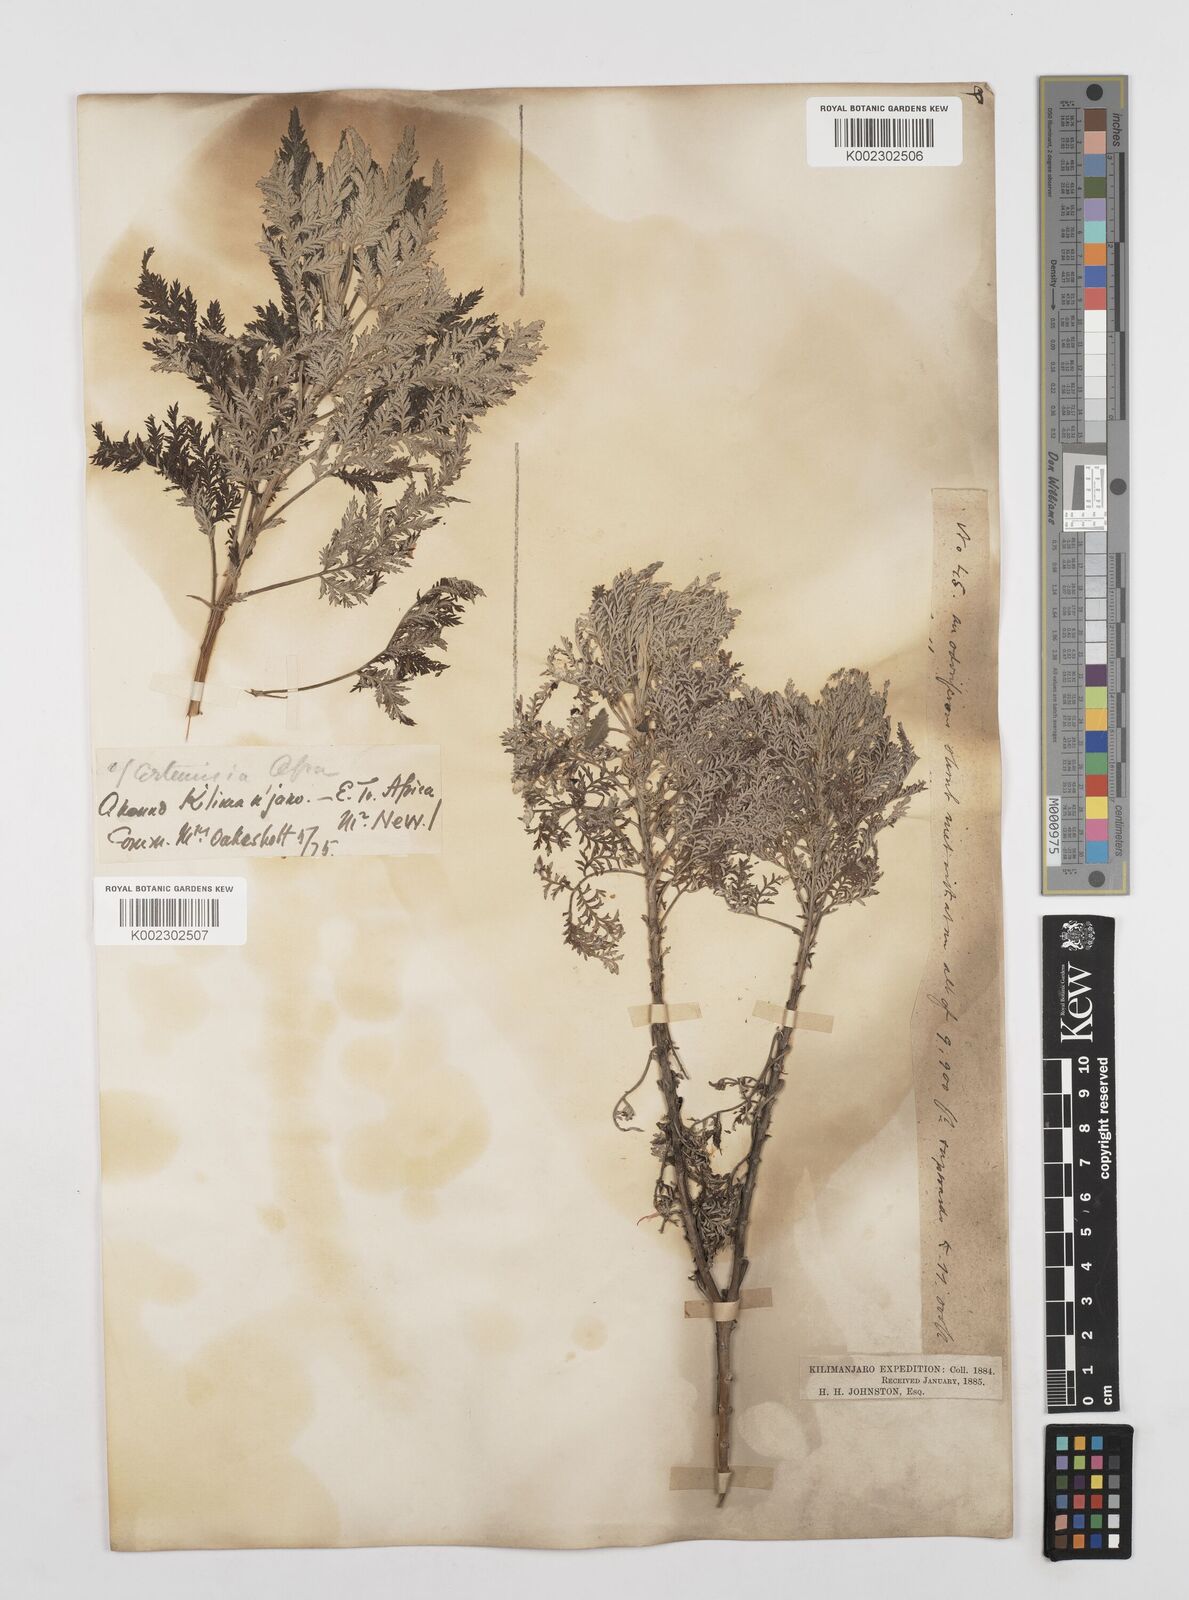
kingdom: Plantae
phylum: Tracheophyta
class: Magnoliopsida
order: Asterales
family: Asteraceae
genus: Artemisia
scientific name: Artemisia afra
